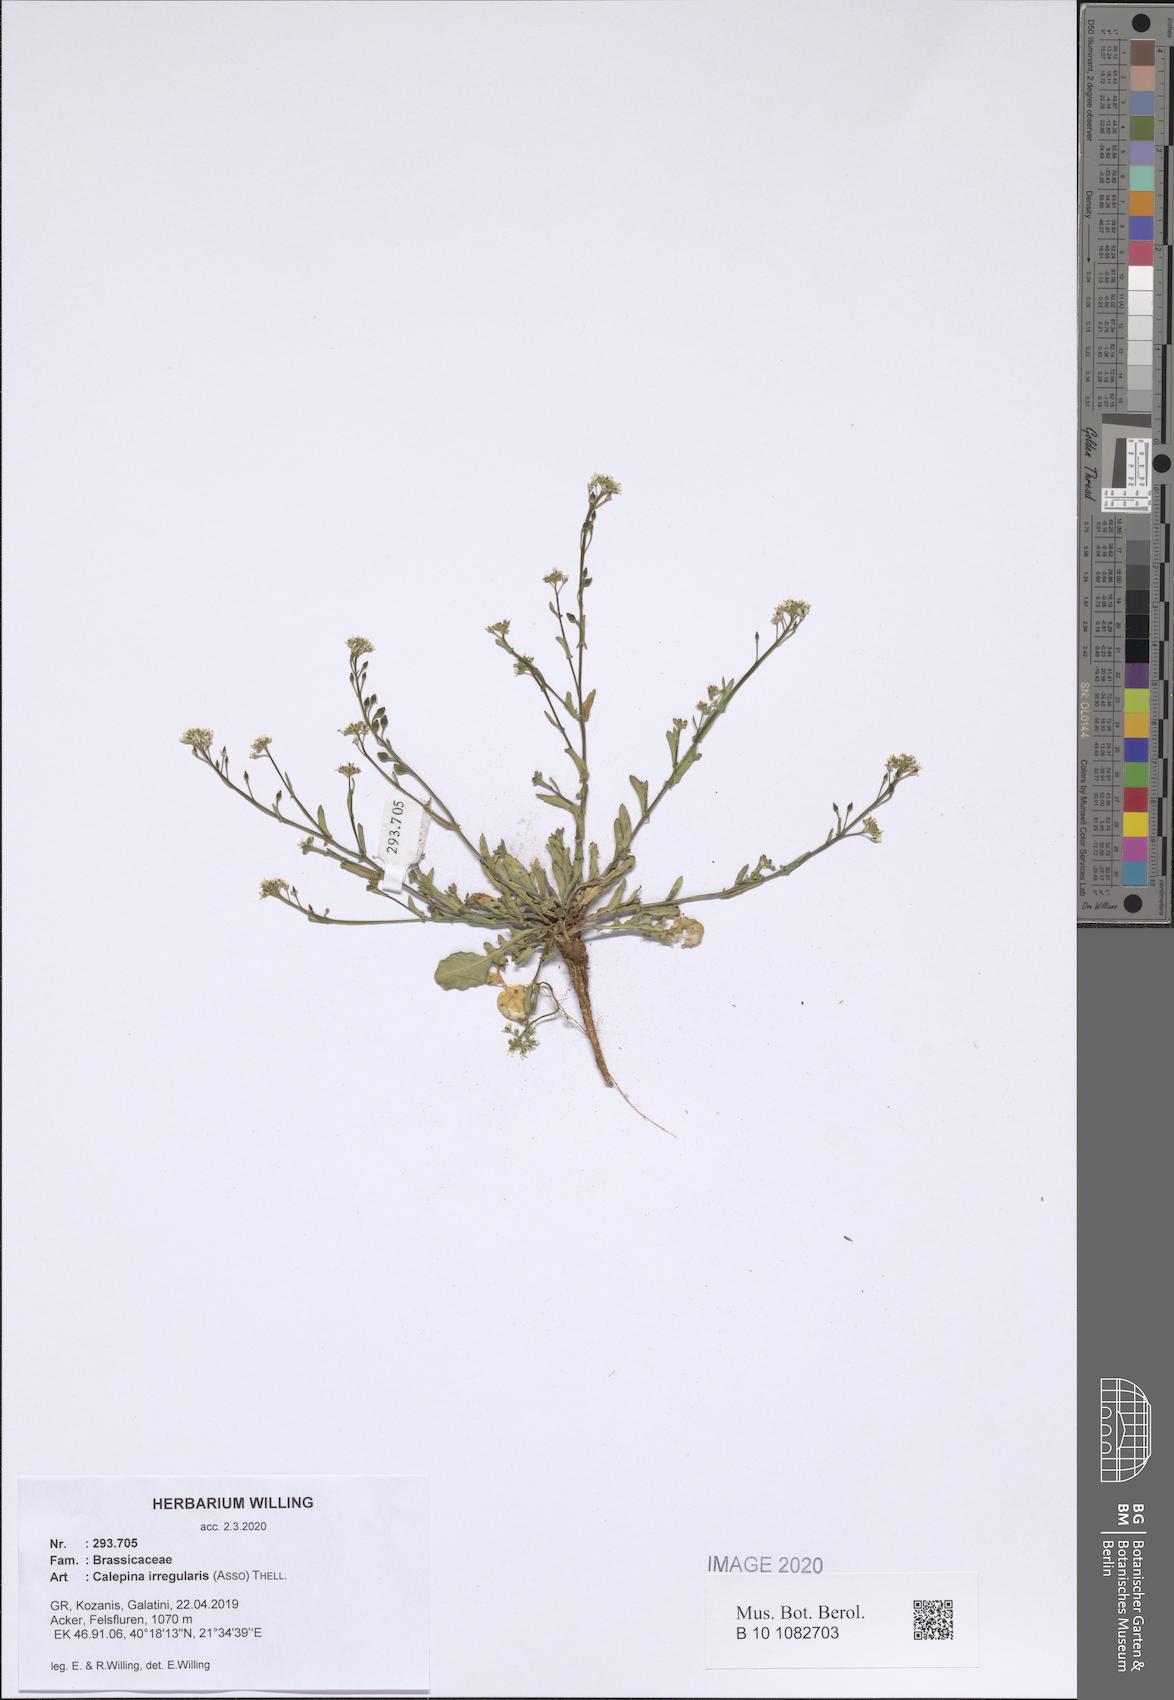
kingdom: Plantae
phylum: Tracheophyta
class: Magnoliopsida
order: Brassicales
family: Brassicaceae
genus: Calepina
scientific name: Calepina irregularis
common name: White ballmustard
